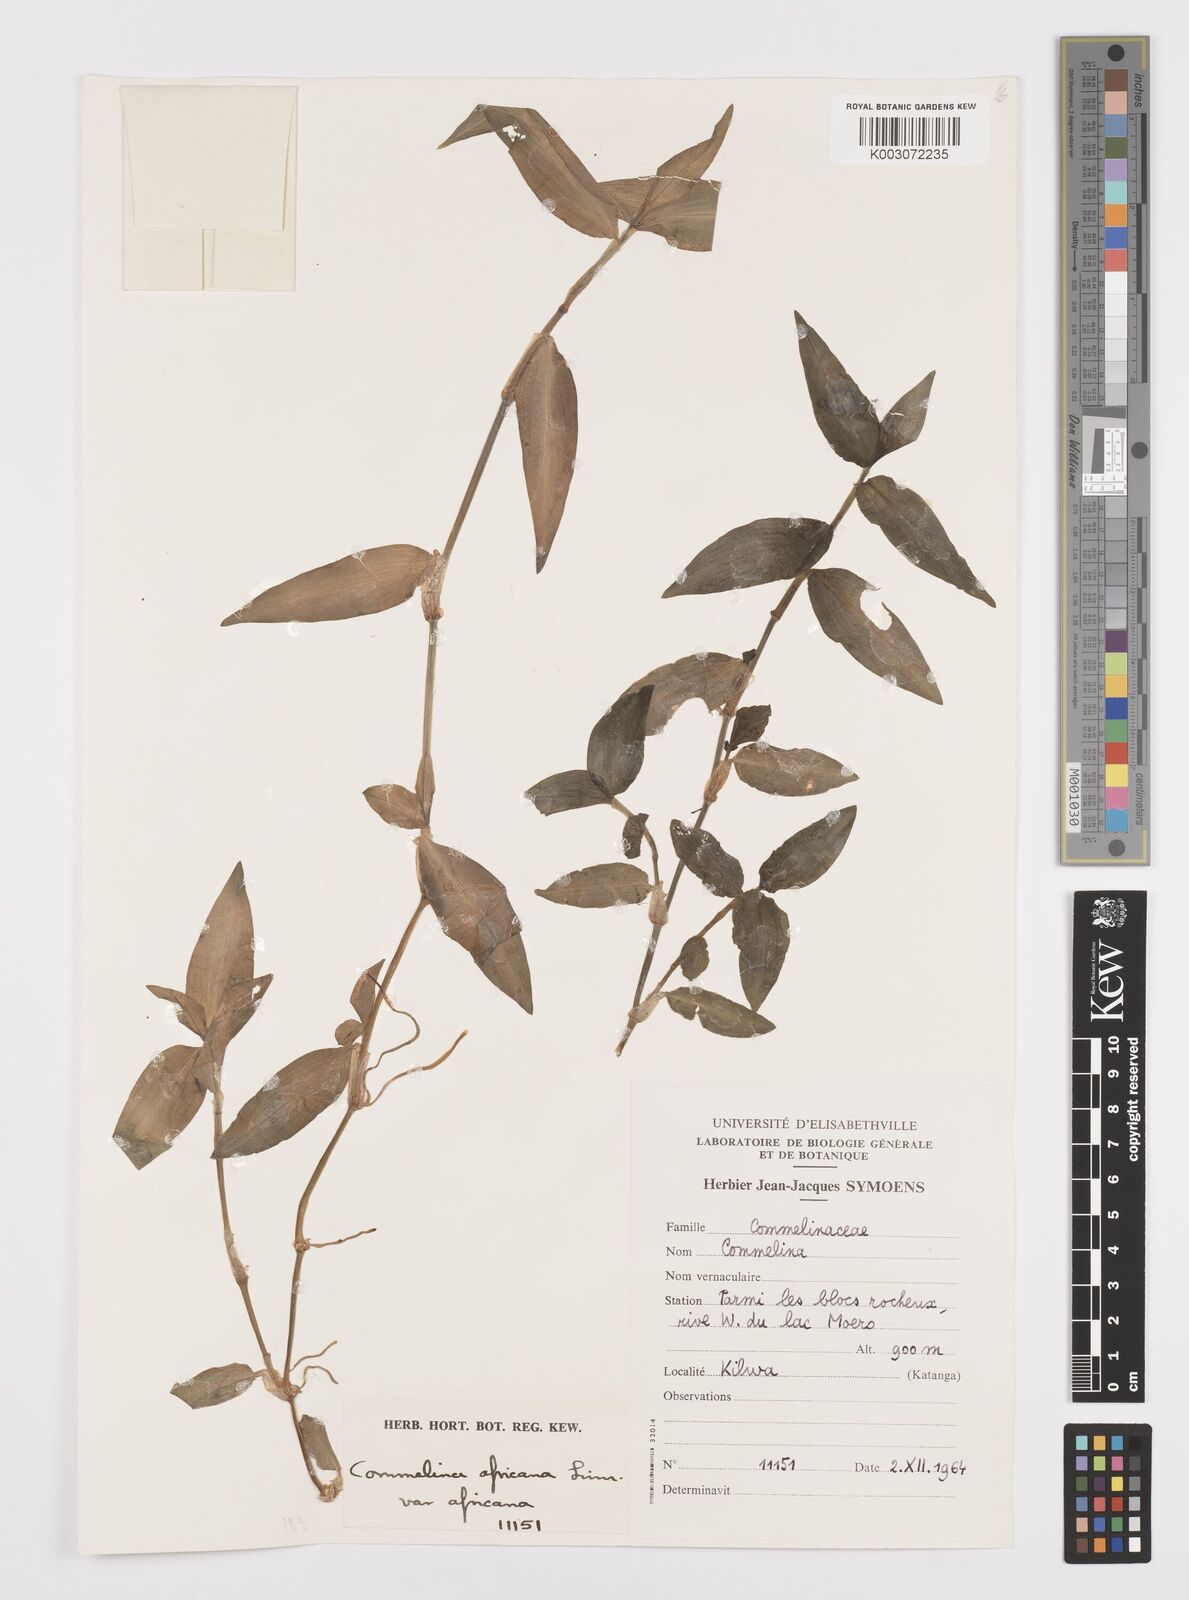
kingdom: Plantae
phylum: Tracheophyta
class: Liliopsida
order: Commelinales
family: Commelinaceae
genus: Commelina
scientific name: Commelina africana
